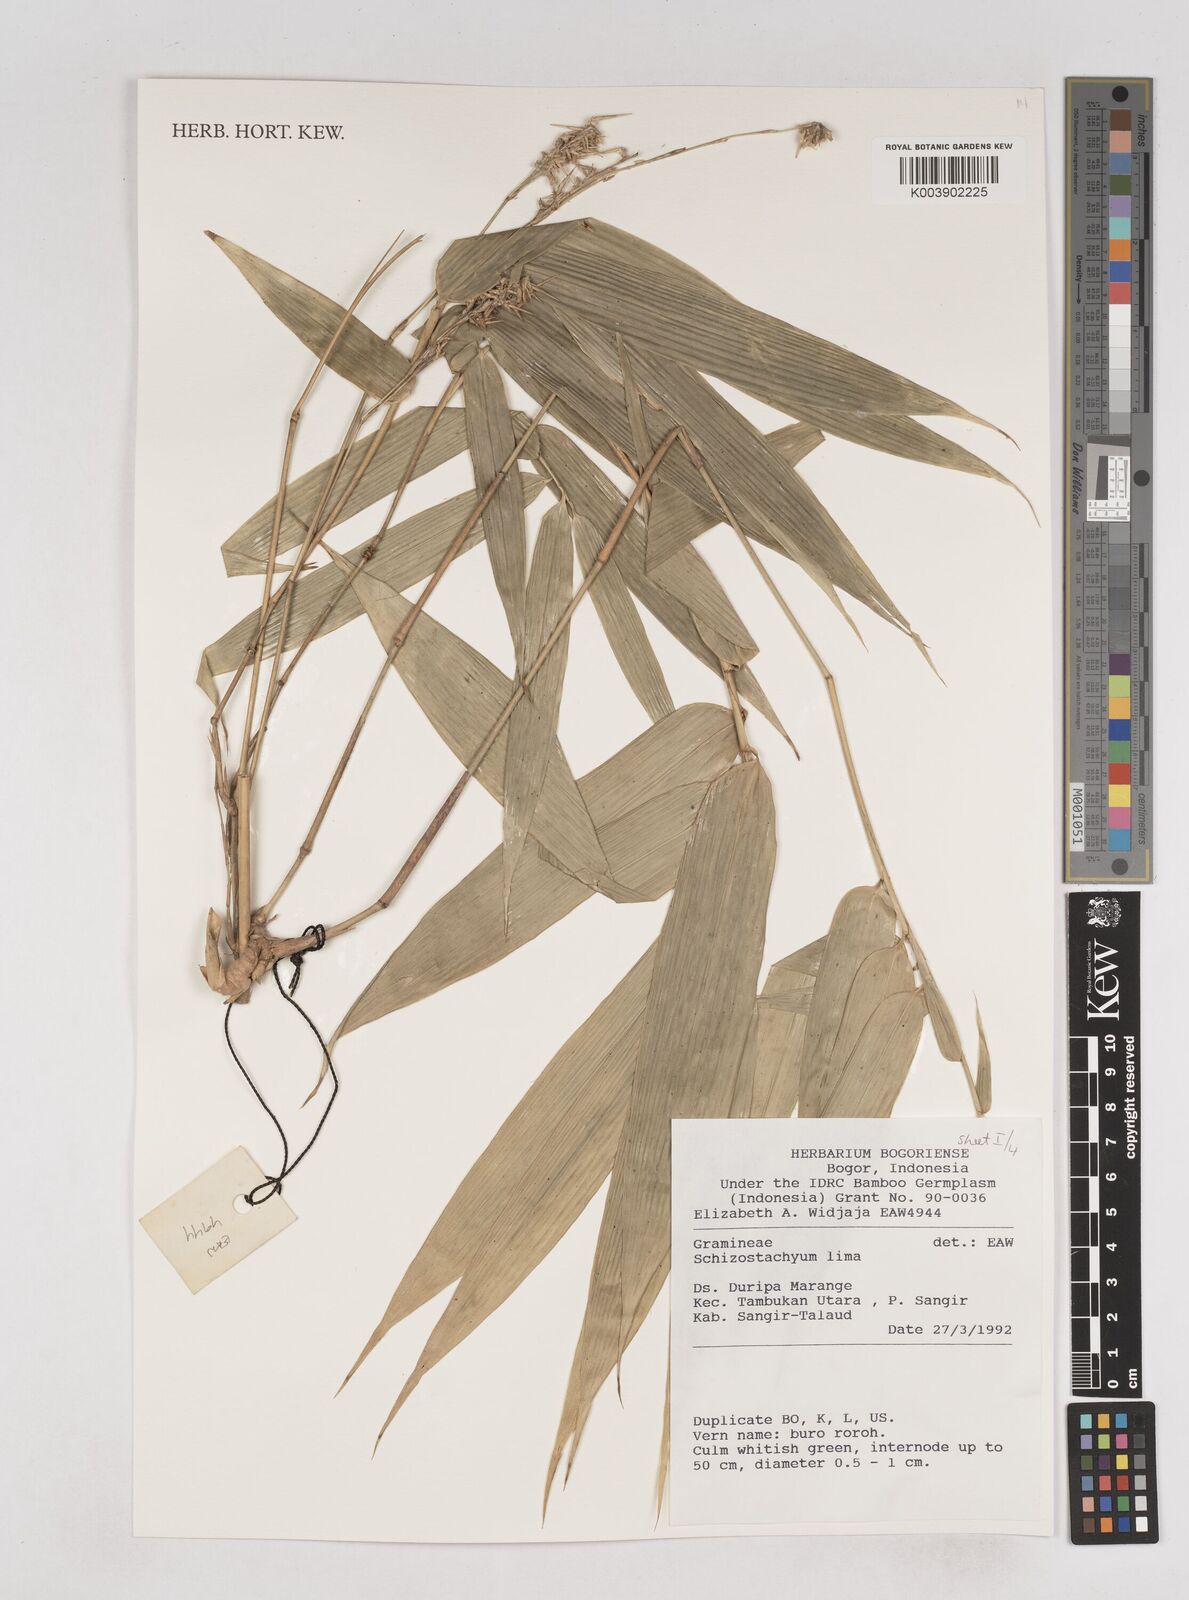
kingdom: Plantae
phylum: Tracheophyta
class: Liliopsida
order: Poales
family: Poaceae
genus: Schizostachyum
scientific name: Schizostachyum lima
